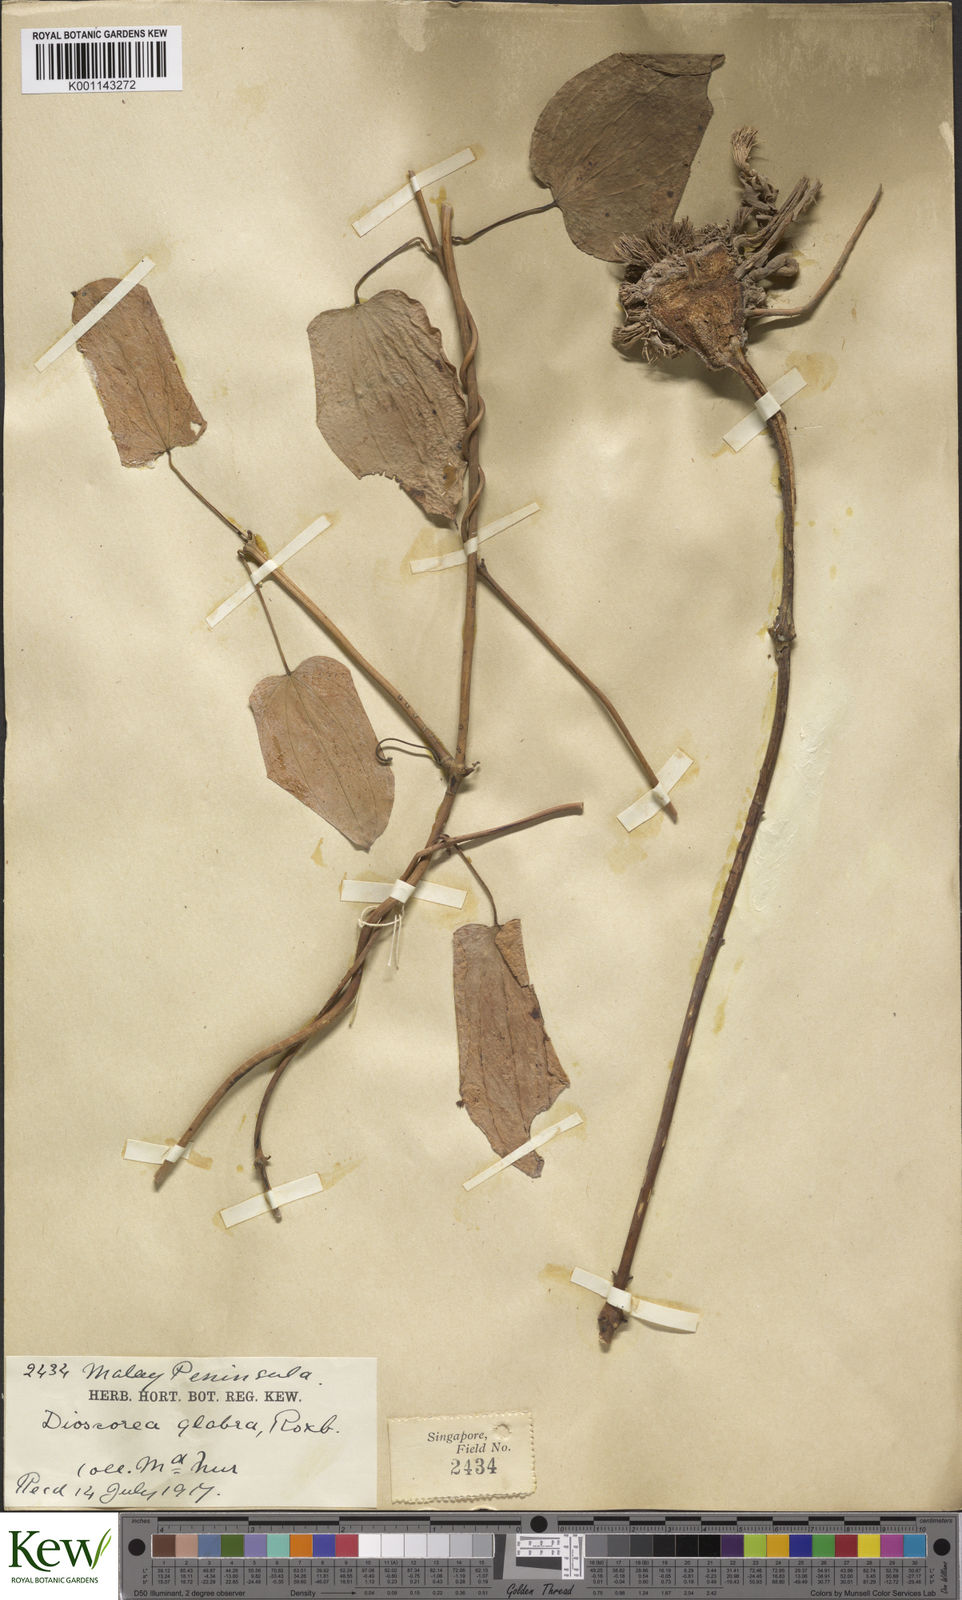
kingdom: Plantae
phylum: Tracheophyta
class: Liliopsida
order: Dioscoreales
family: Dioscoreaceae
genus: Dioscorea
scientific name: Dioscorea glabra
